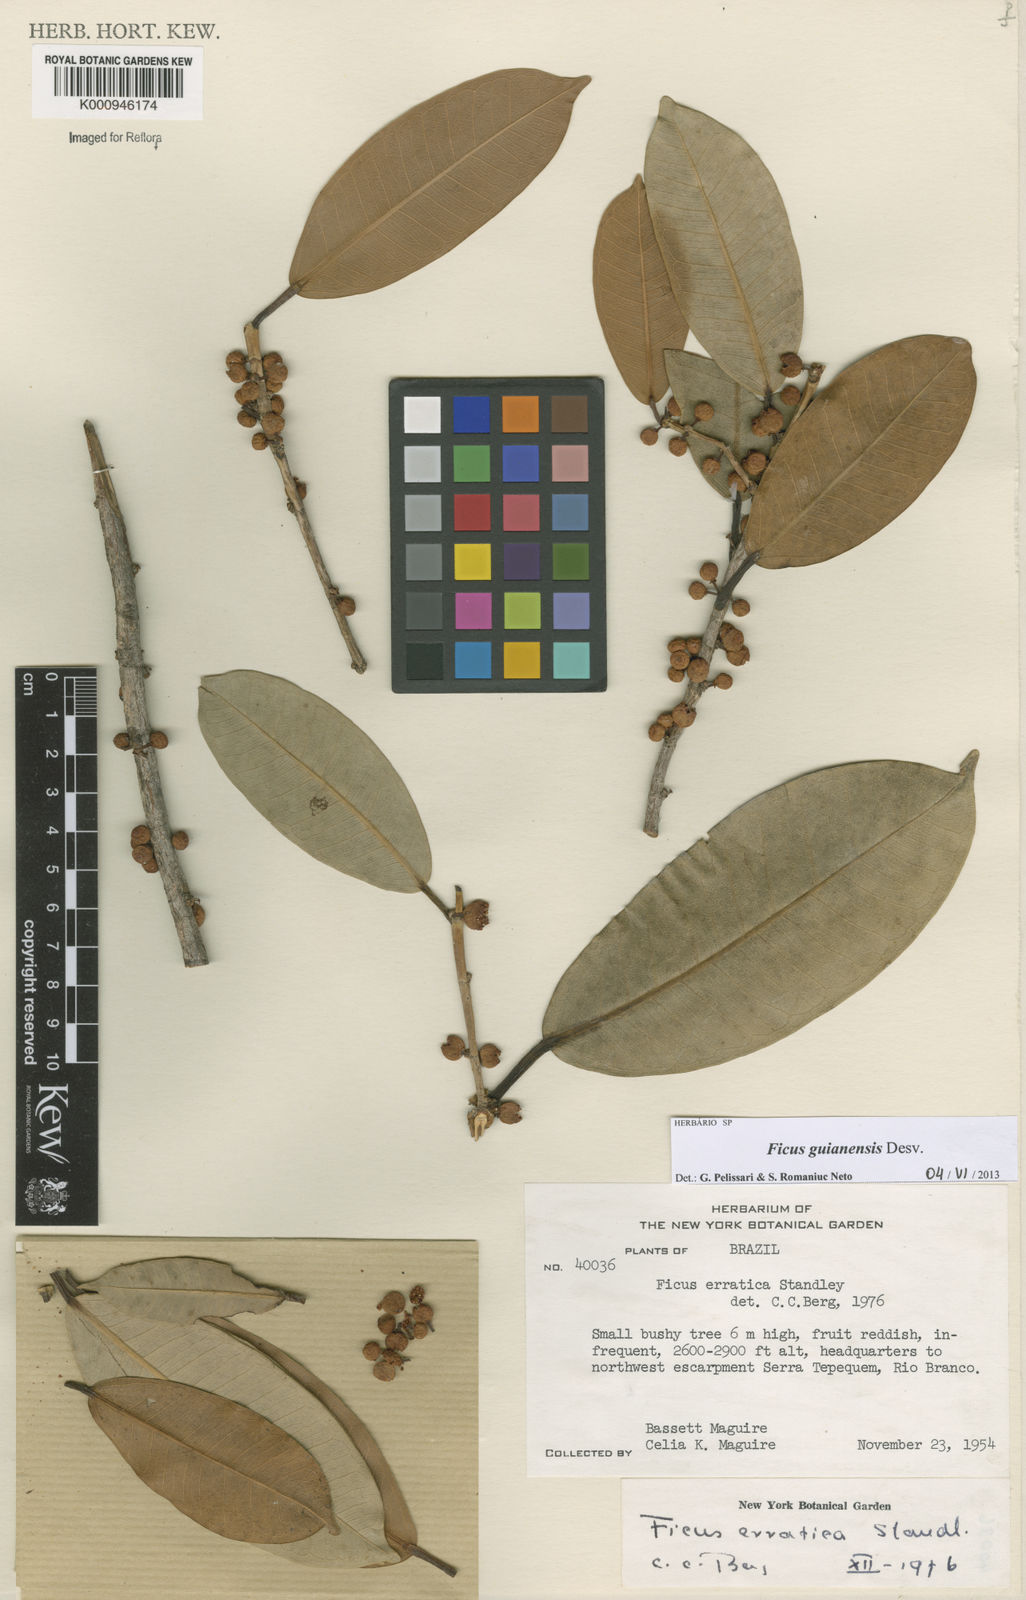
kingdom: Plantae
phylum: Tracheophyta
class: Magnoliopsida
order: Rosales
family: Moraceae
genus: Ficus
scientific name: Ficus americana
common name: Jamaican cherry fig
